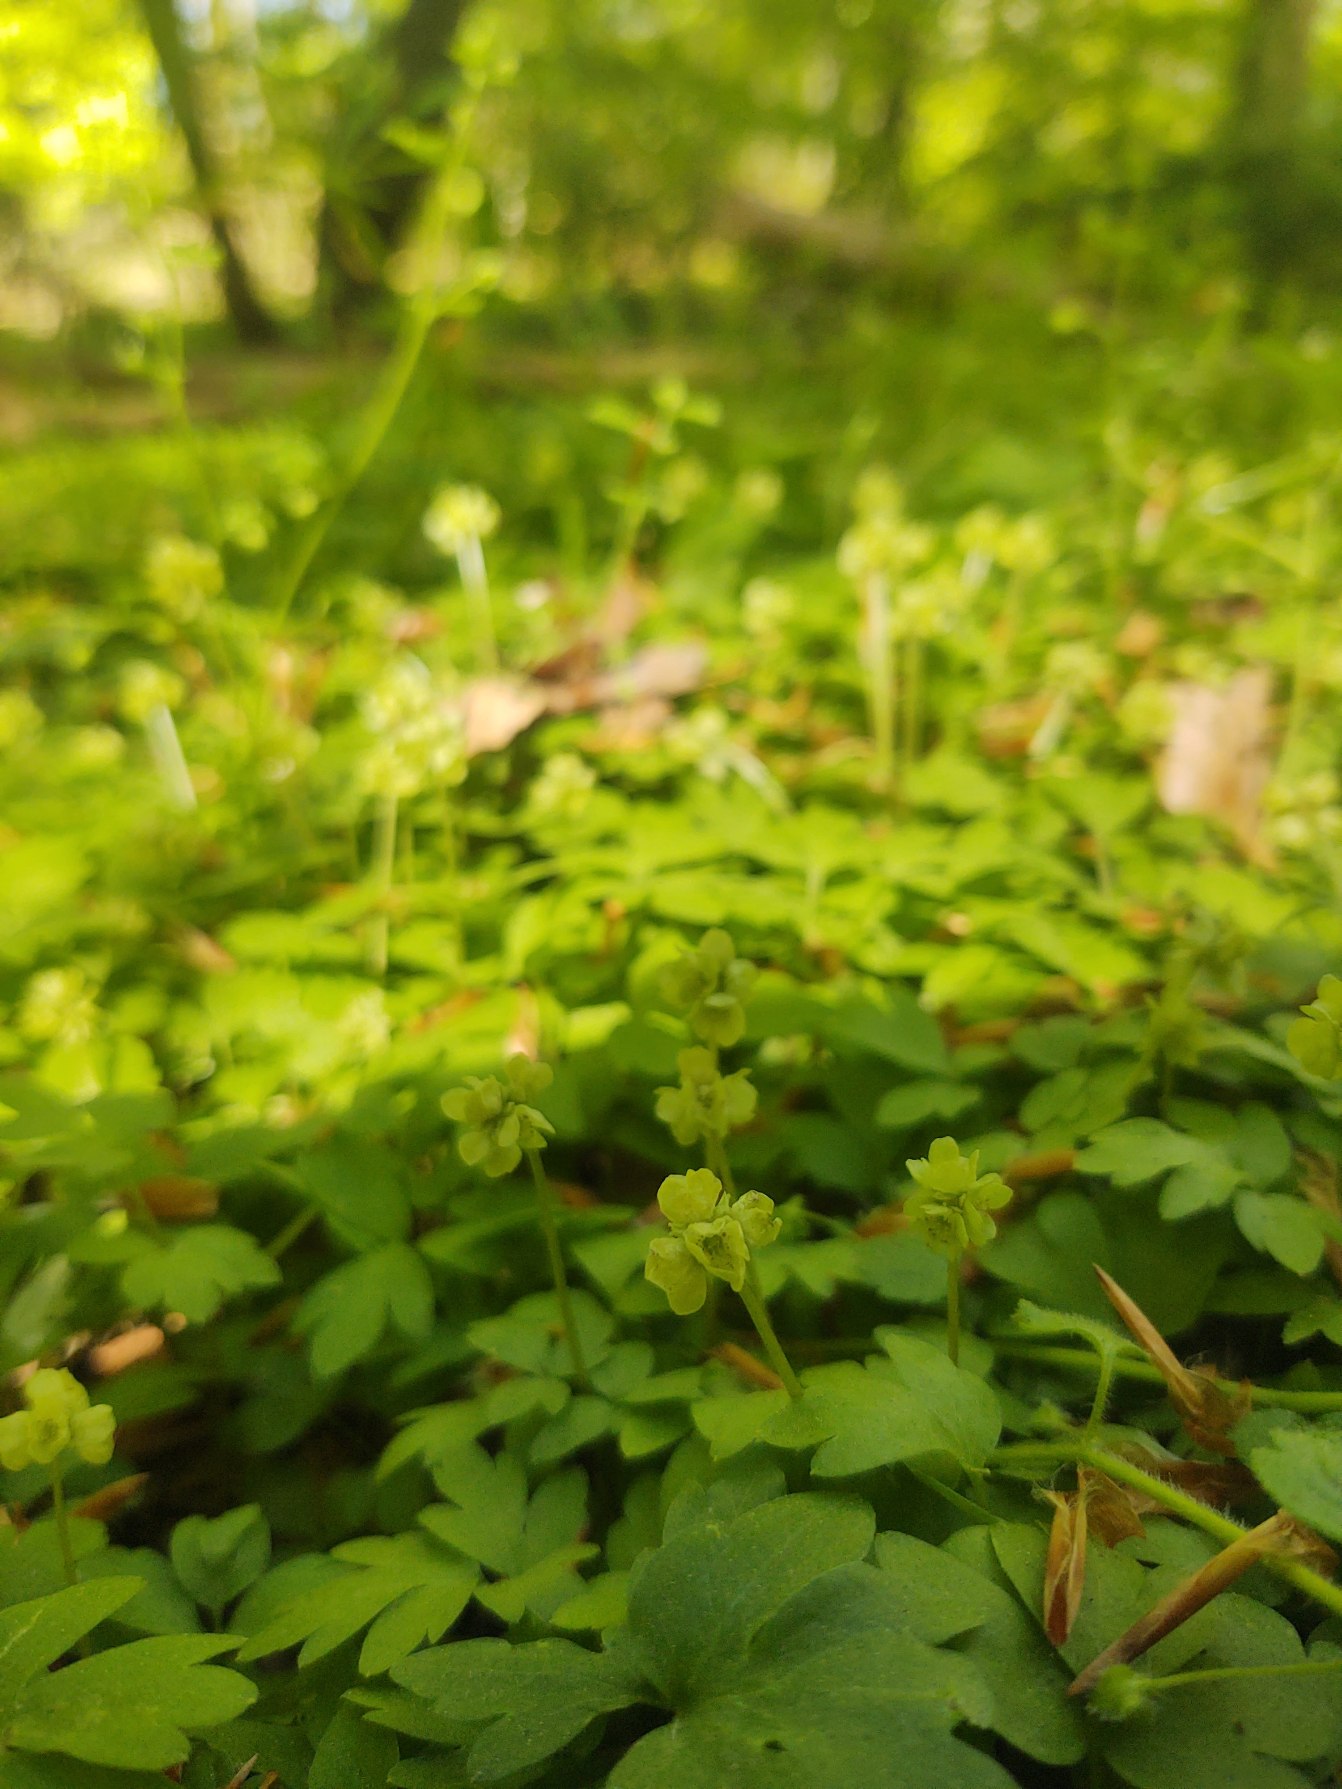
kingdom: Plantae
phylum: Tracheophyta
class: Magnoliopsida
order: Dipsacales
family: Viburnaceae
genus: Adoxa
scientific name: Adoxa moschatellina
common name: Desmerurt
